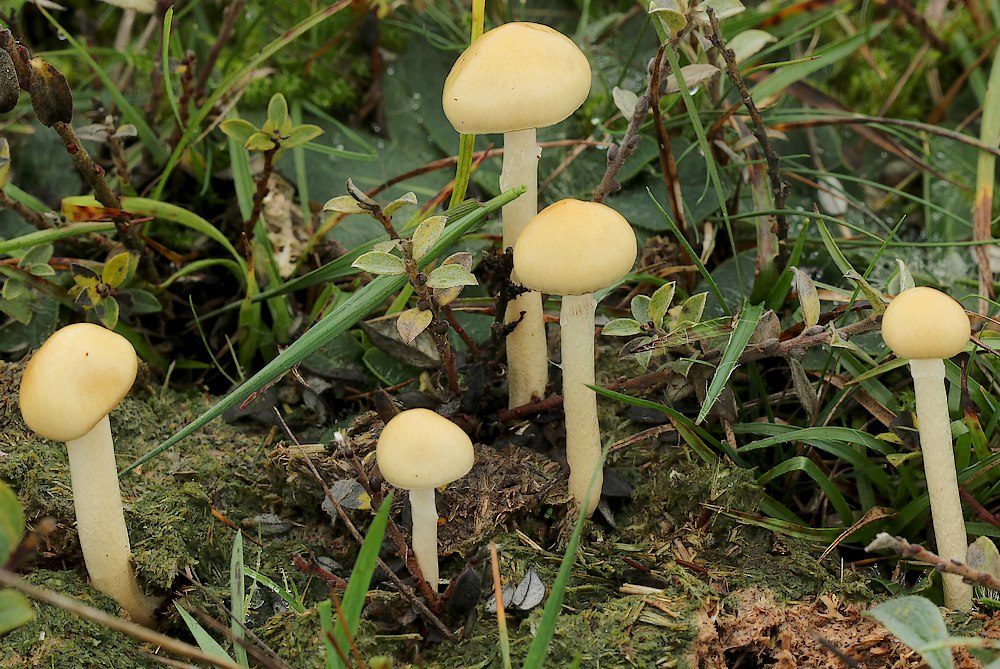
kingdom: Fungi
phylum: Basidiomycota
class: Agaricomycetes
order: Agaricales
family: Strophariaceae
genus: Protostropharia
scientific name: Protostropharia semiglobata
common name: halvkugleformet bredblad
